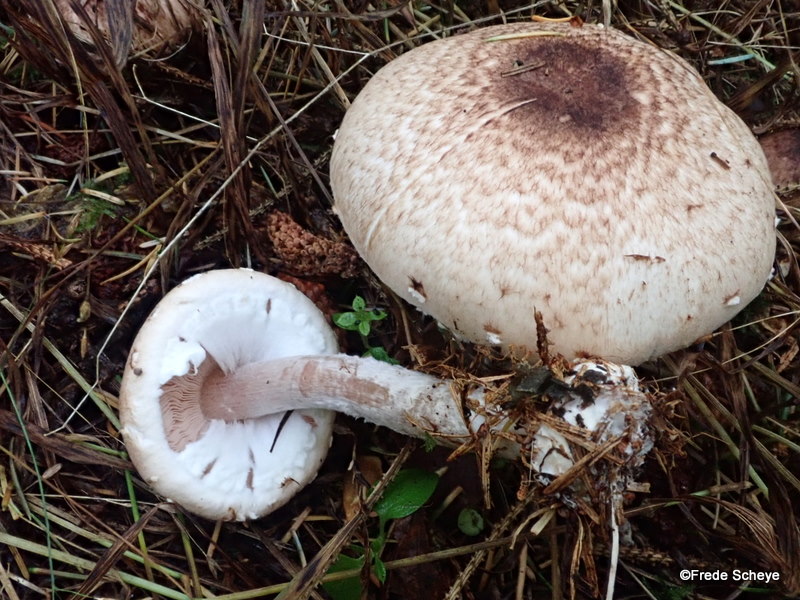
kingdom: Fungi
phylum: Basidiomycota
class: Agaricomycetes
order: Agaricales
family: Agaricaceae
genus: Agaricus
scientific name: Agaricus impudicus
